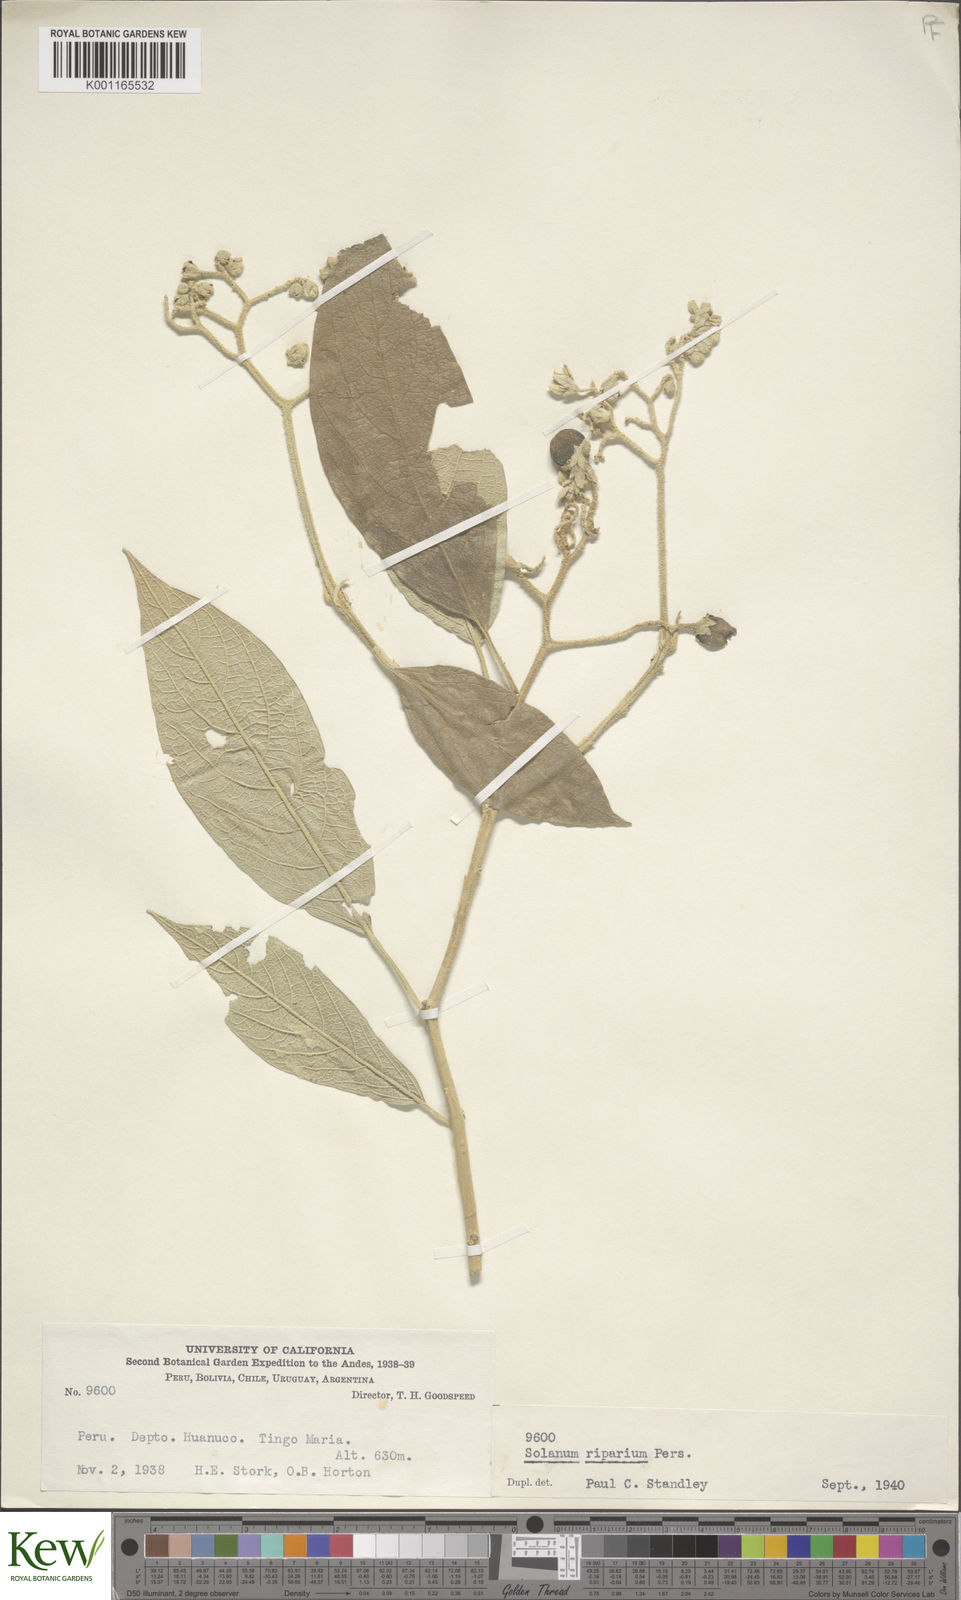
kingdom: Plantae
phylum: Tracheophyta
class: Magnoliopsida
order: Solanales
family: Solanaceae
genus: Solanum
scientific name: Solanum riparium
